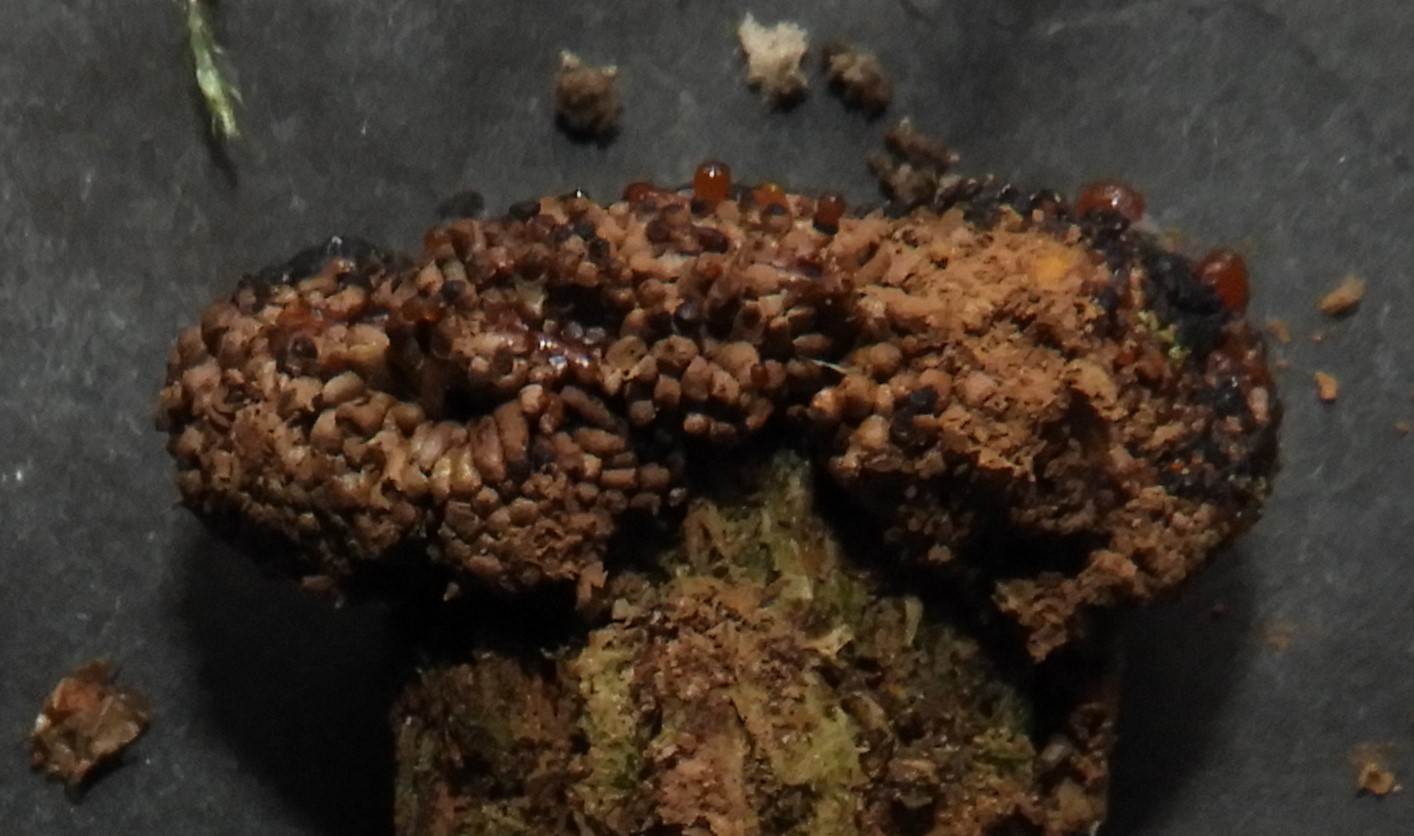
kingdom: Protozoa
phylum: Mycetozoa
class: Myxomycetes
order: Cribrariales
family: Tubiferaceae
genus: Tubifera
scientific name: Tubifera
